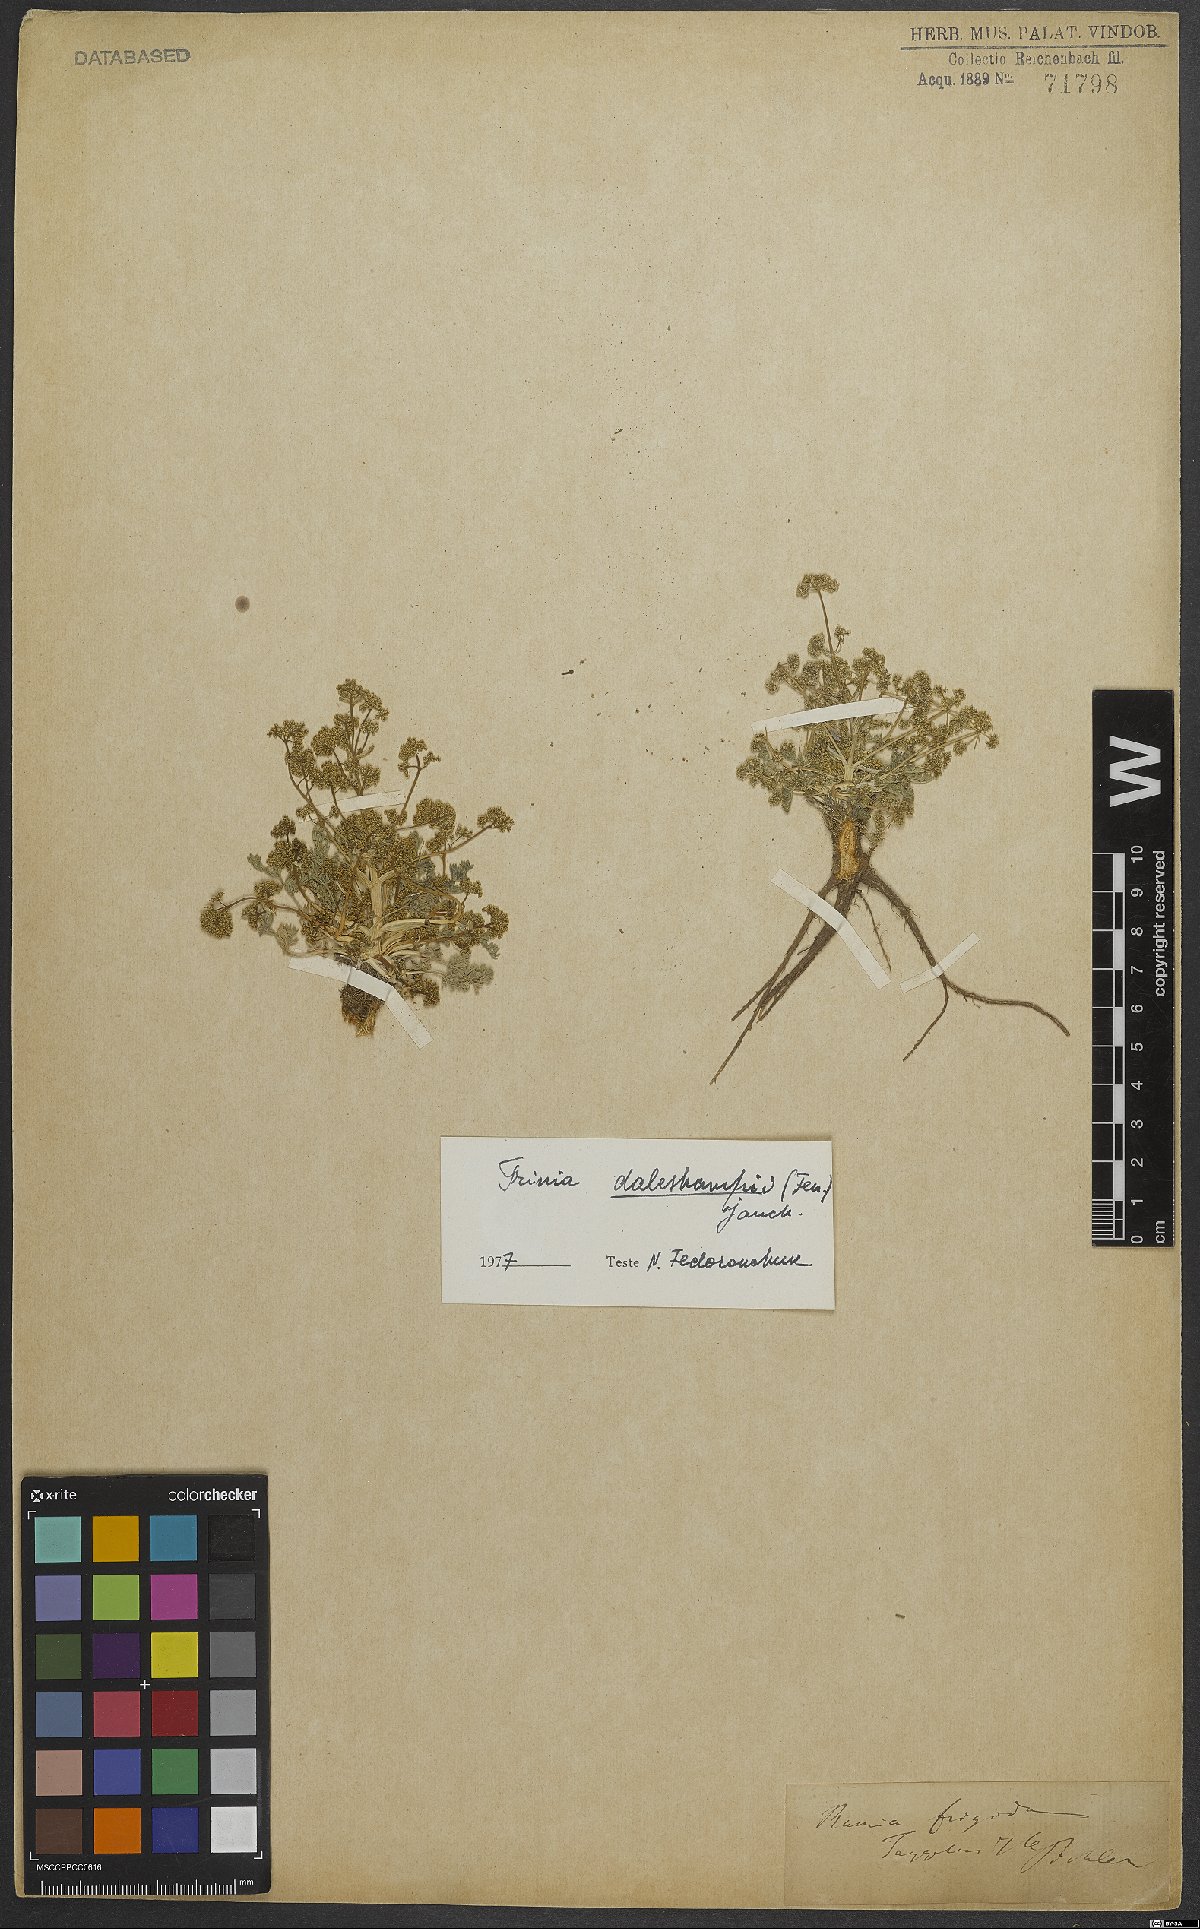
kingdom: Plantae
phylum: Tracheophyta
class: Magnoliopsida
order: Apiales
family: Apiaceae
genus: Trinia
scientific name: Trinia dalechampii
